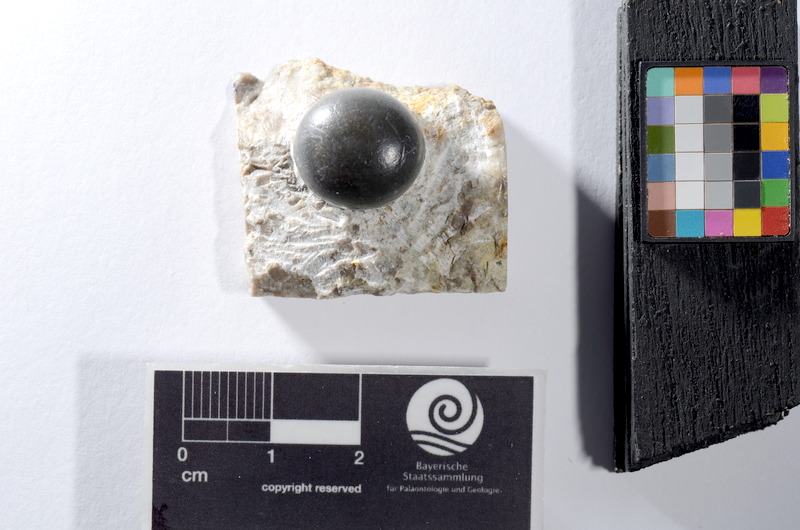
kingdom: Animalia
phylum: Chordata
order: Lepisosteiformes
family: Lepidotidae
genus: Lepidotes
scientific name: Lepidotes
